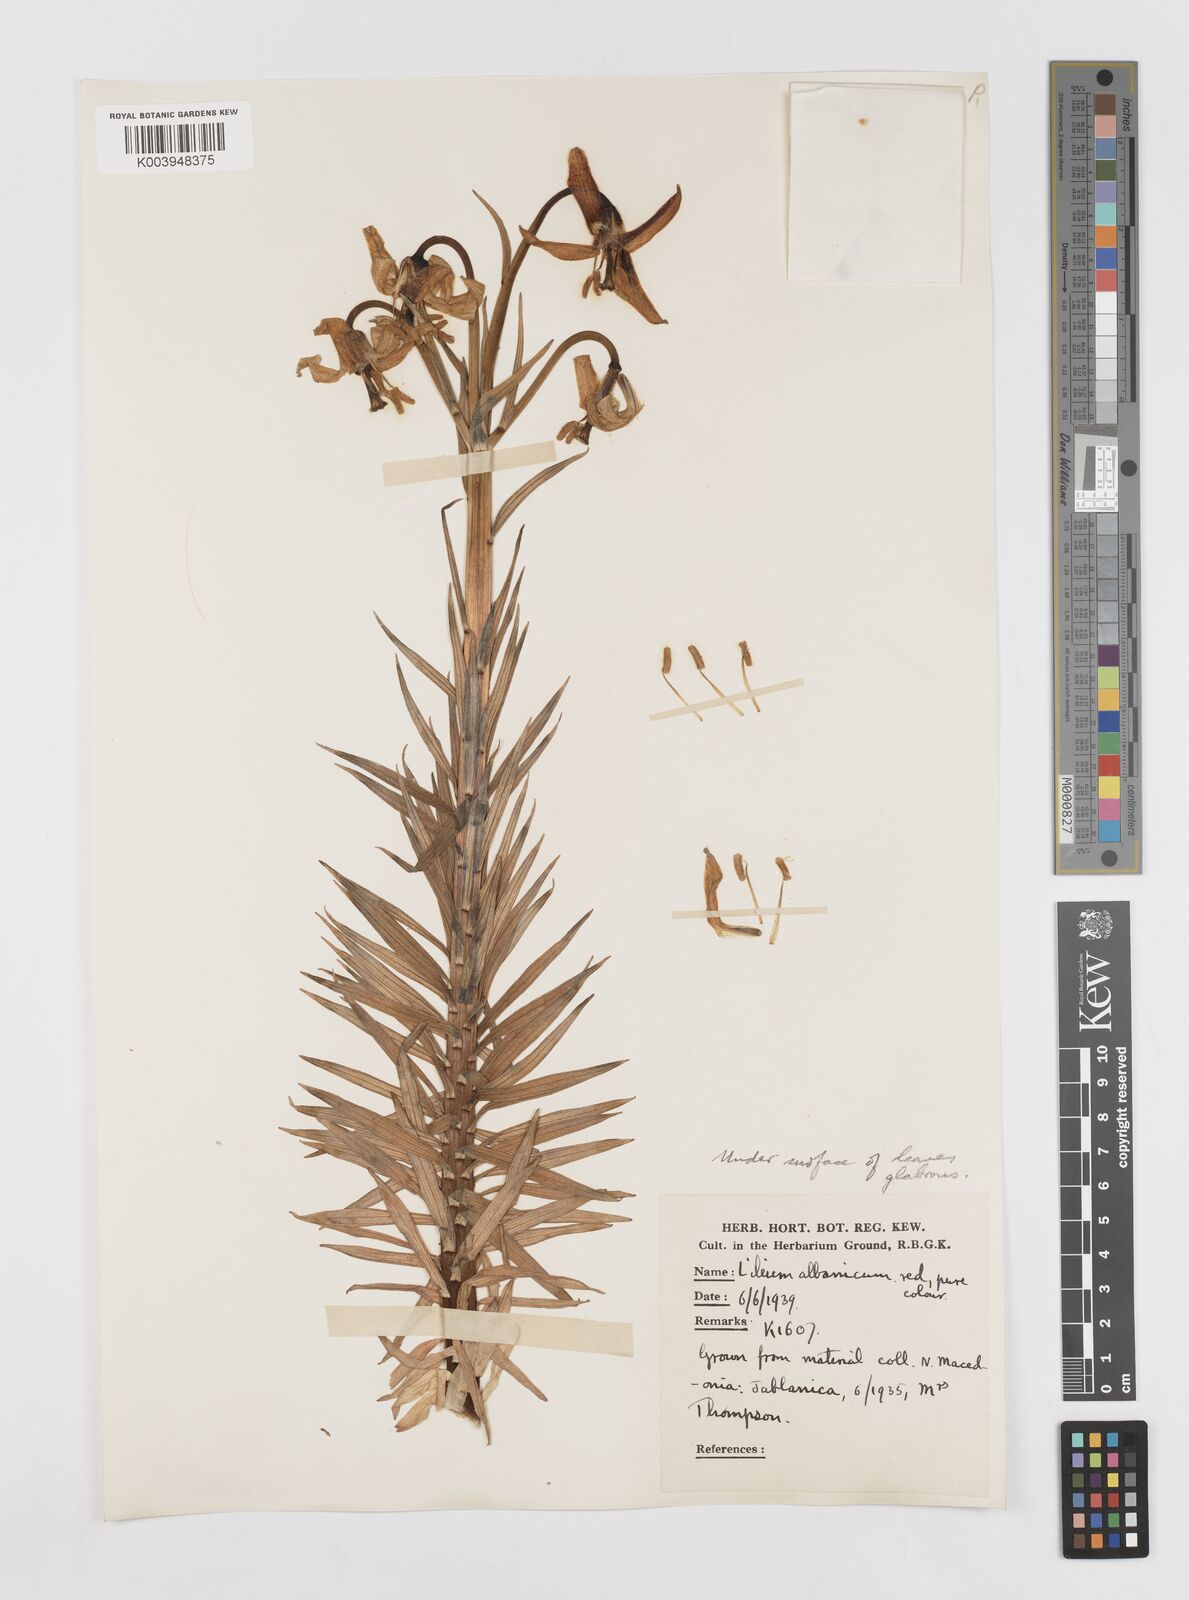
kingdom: Plantae
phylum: Tracheophyta
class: Liliopsida
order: Liliales
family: Liliaceae
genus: Lilium
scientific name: Lilium carniolicum
